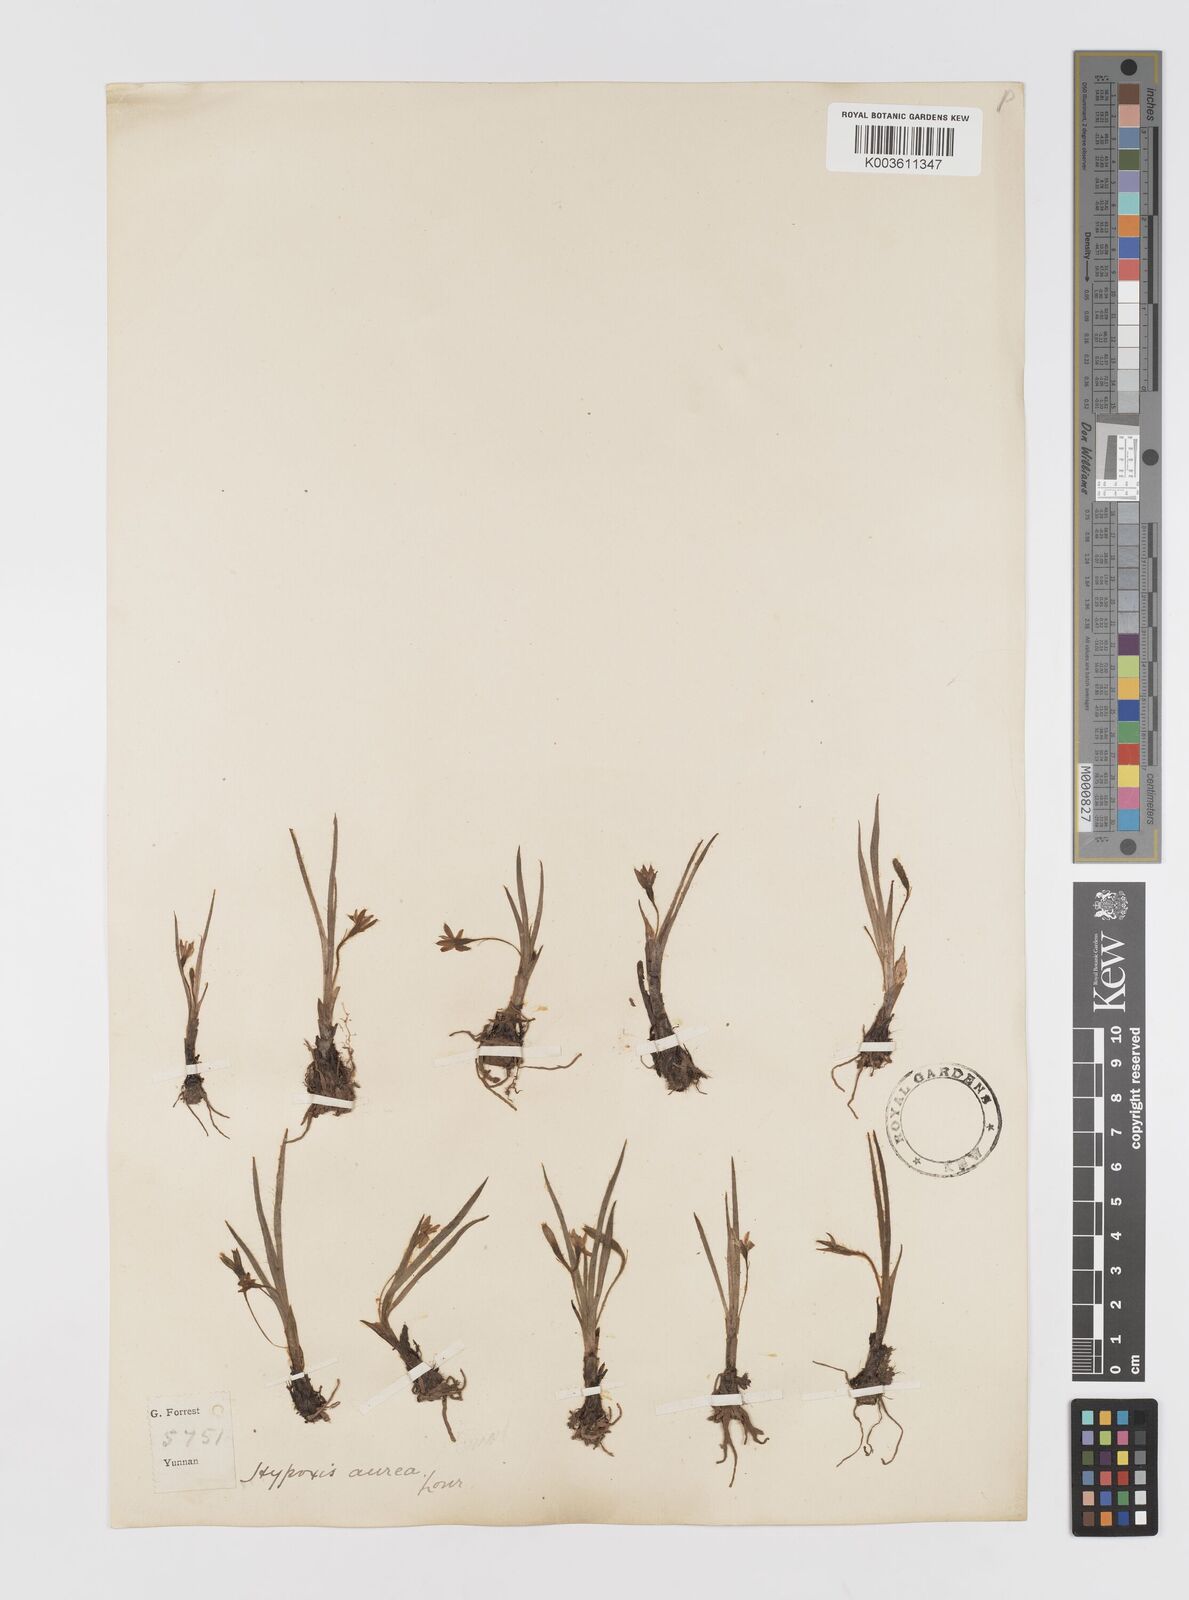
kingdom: Plantae
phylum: Tracheophyta
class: Liliopsida
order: Asparagales
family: Hypoxidaceae
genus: Hypoxis
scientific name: Hypoxis aurea
